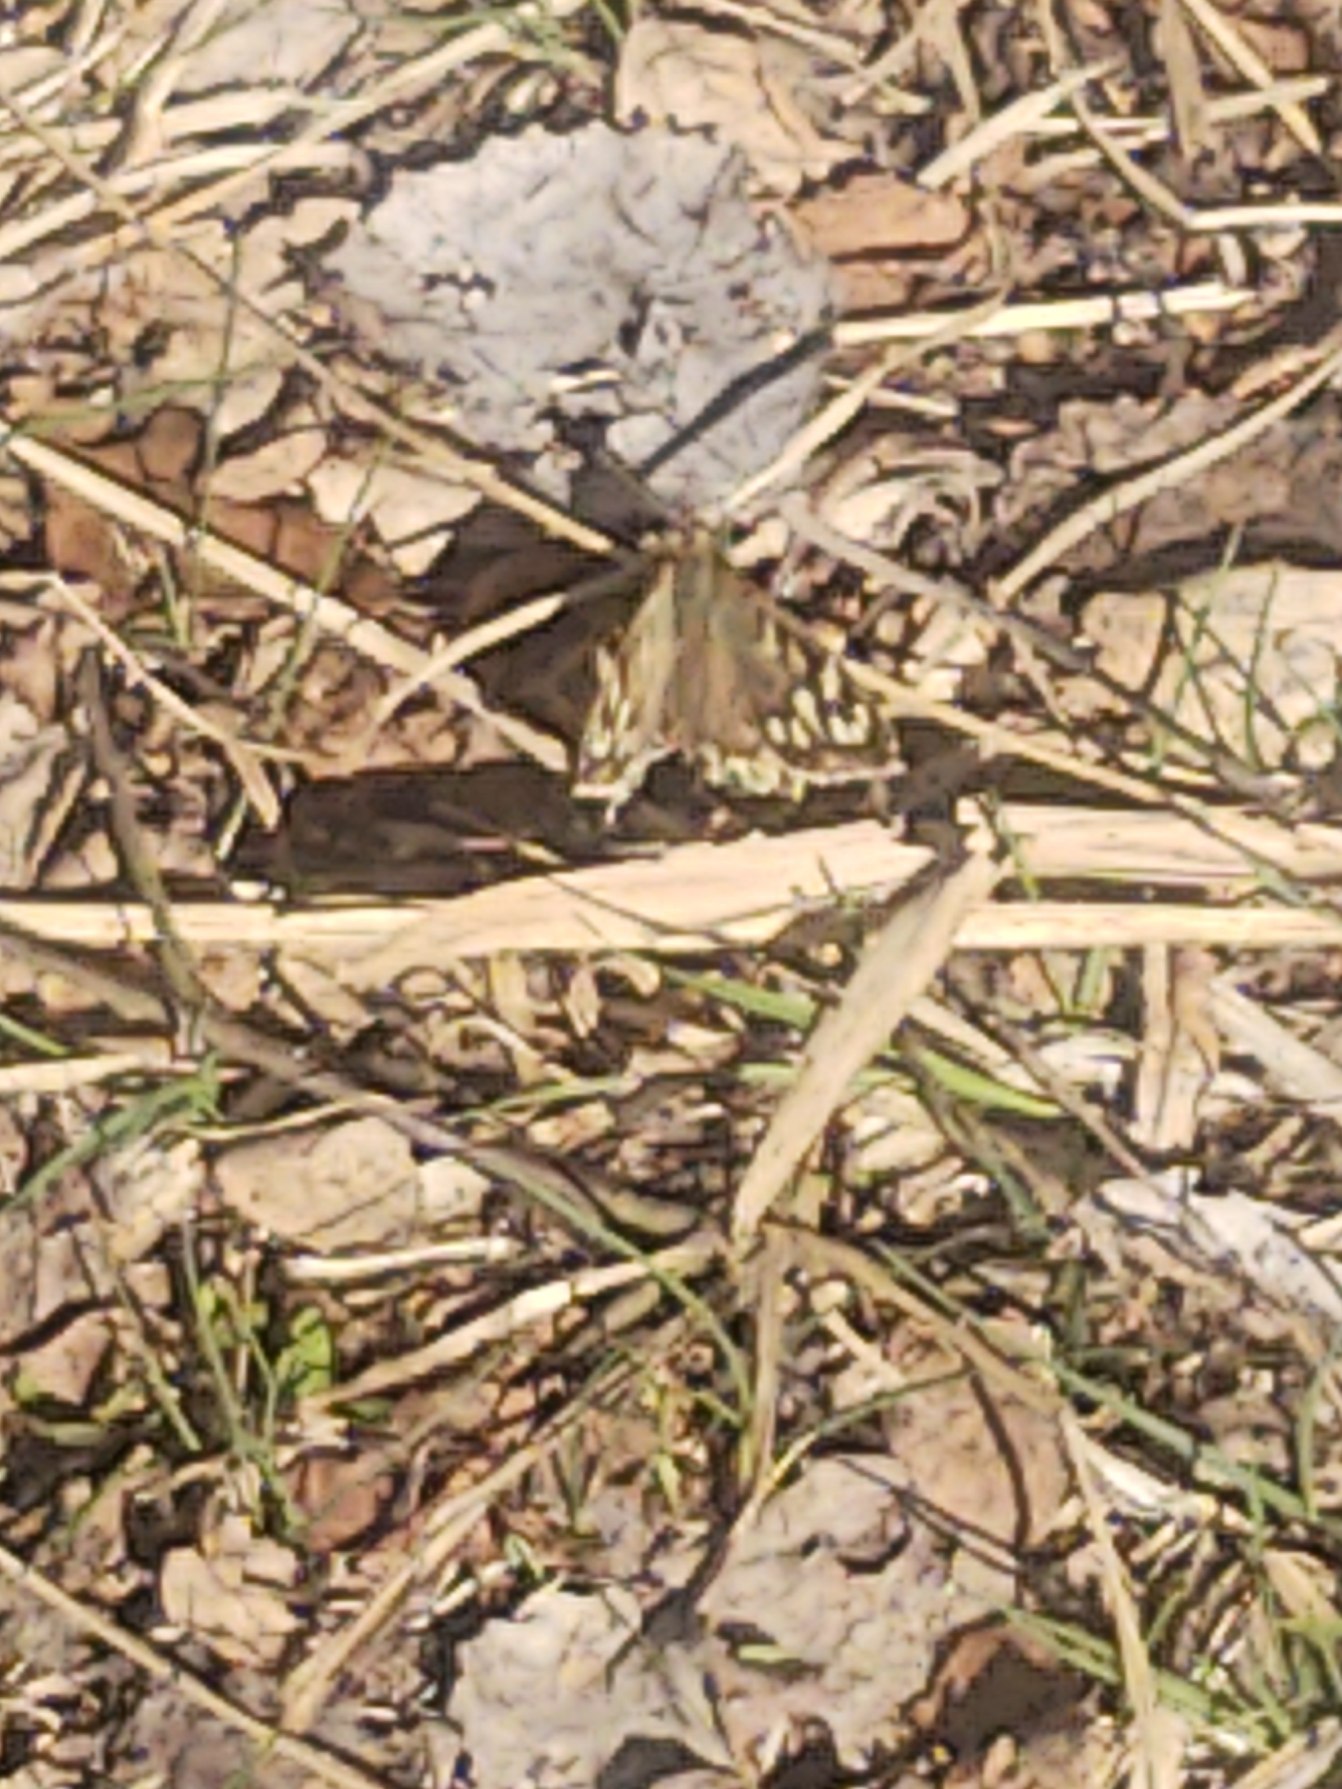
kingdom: Animalia
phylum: Arthropoda
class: Insecta
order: Lepidoptera
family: Nymphalidae
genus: Pararge
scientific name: Pararge aegeria
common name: Skovrandøje
